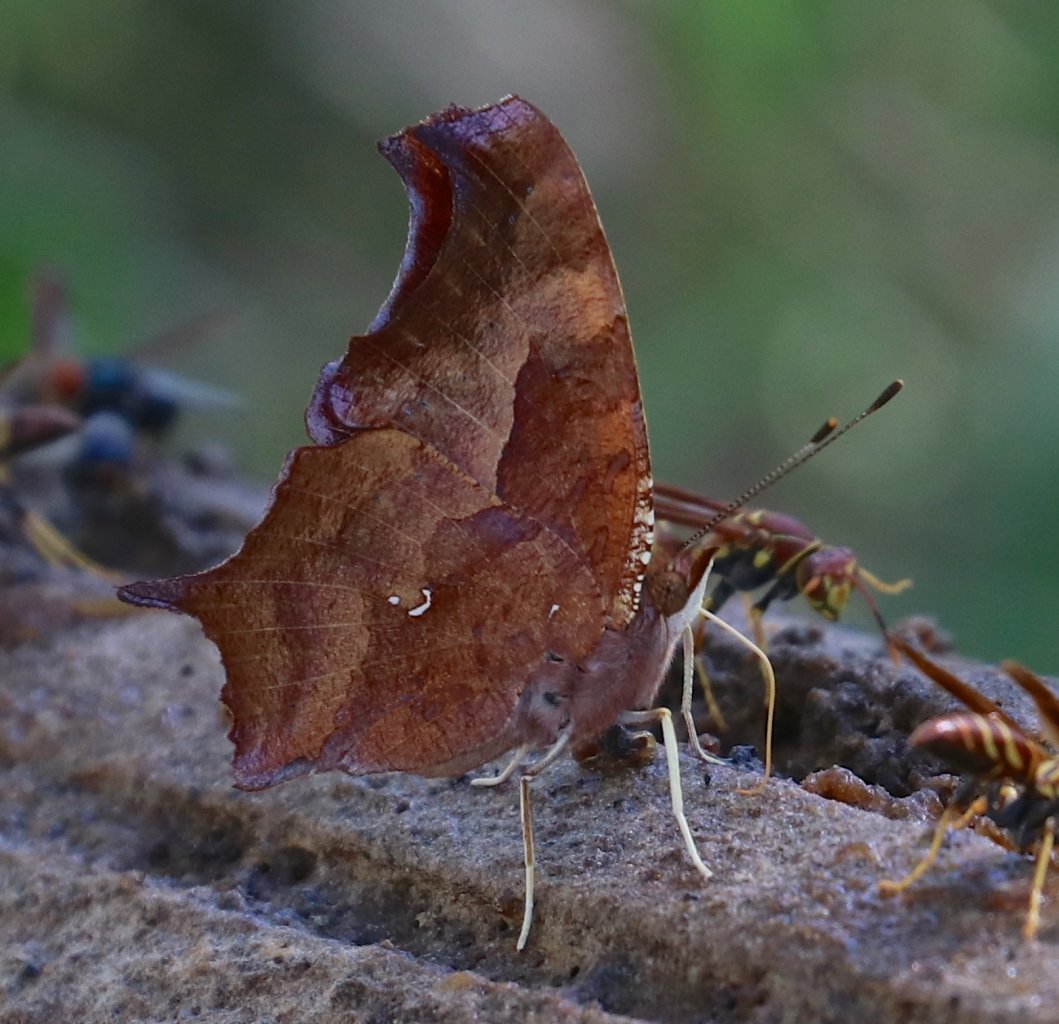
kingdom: Animalia
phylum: Arthropoda
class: Insecta
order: Lepidoptera
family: Nymphalidae
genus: Polygonia
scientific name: Polygonia interrogationis
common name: Question Mark
